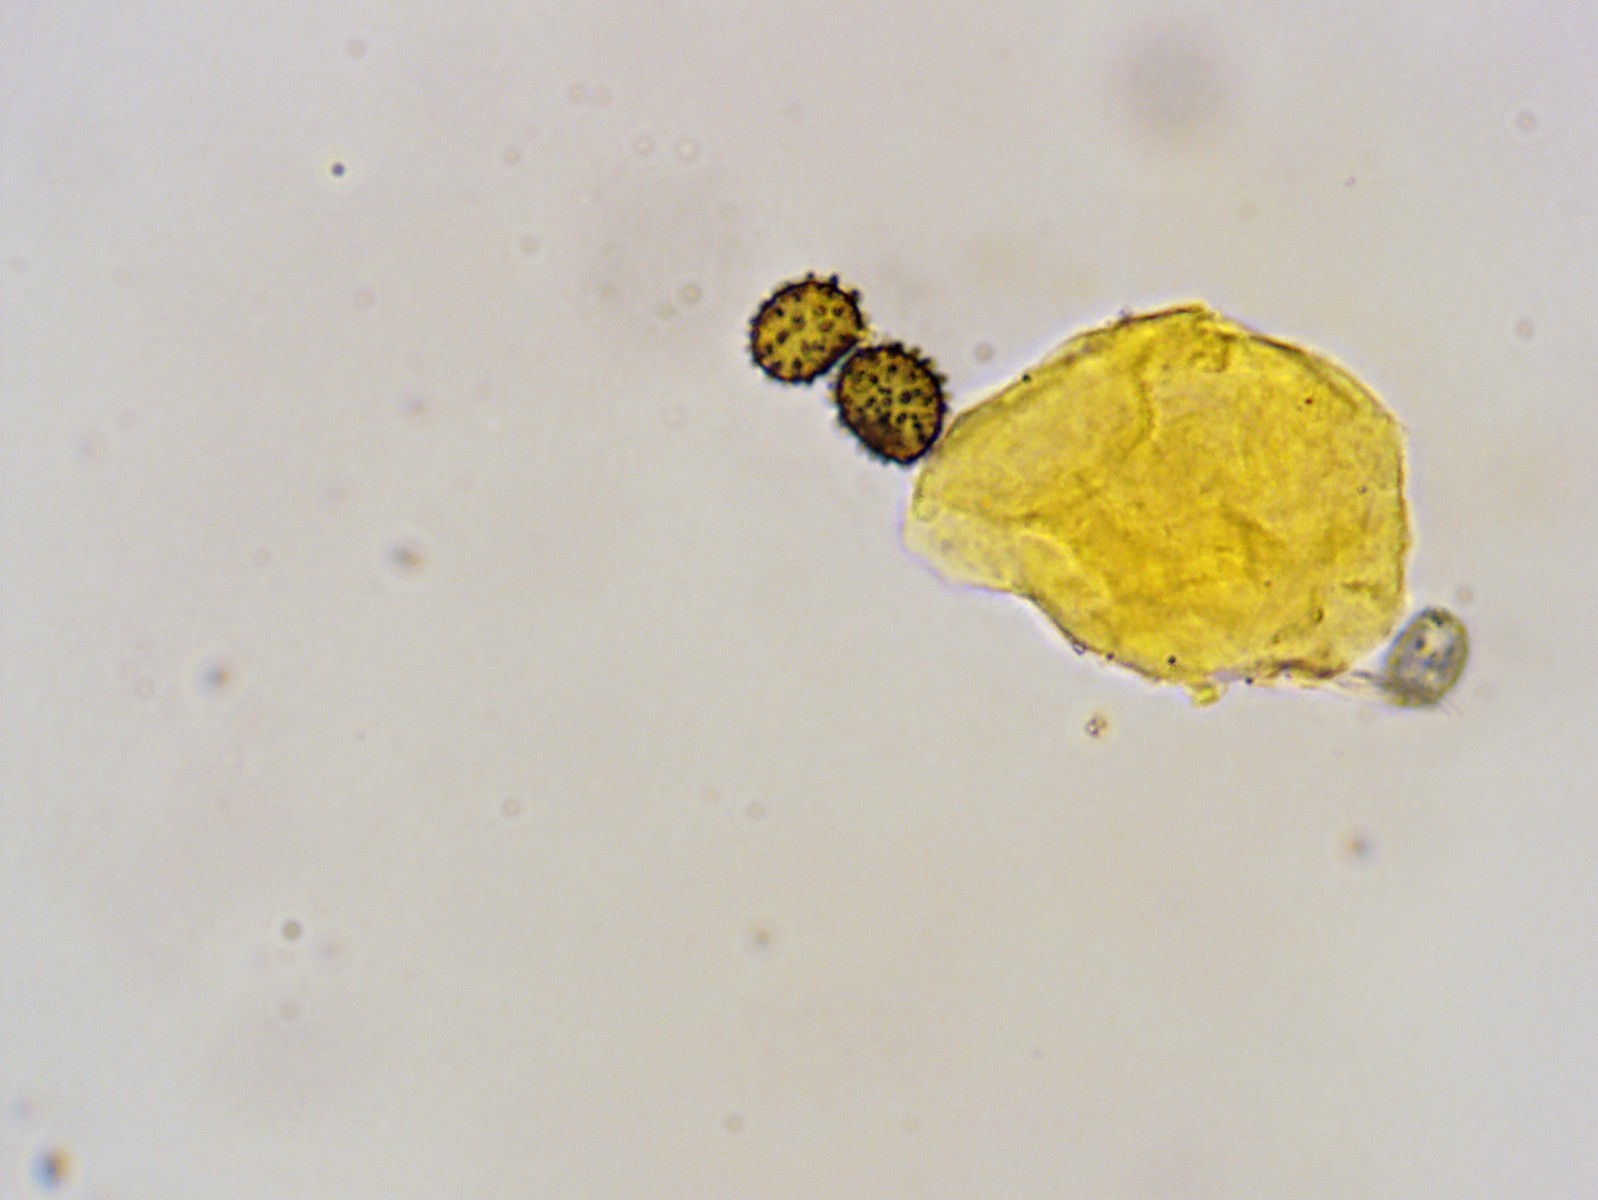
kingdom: Fungi
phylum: Basidiomycota
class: Agaricomycetes
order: Russulales
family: Russulaceae
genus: Russula
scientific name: Russula risigallina
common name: abrikos-skørhat
